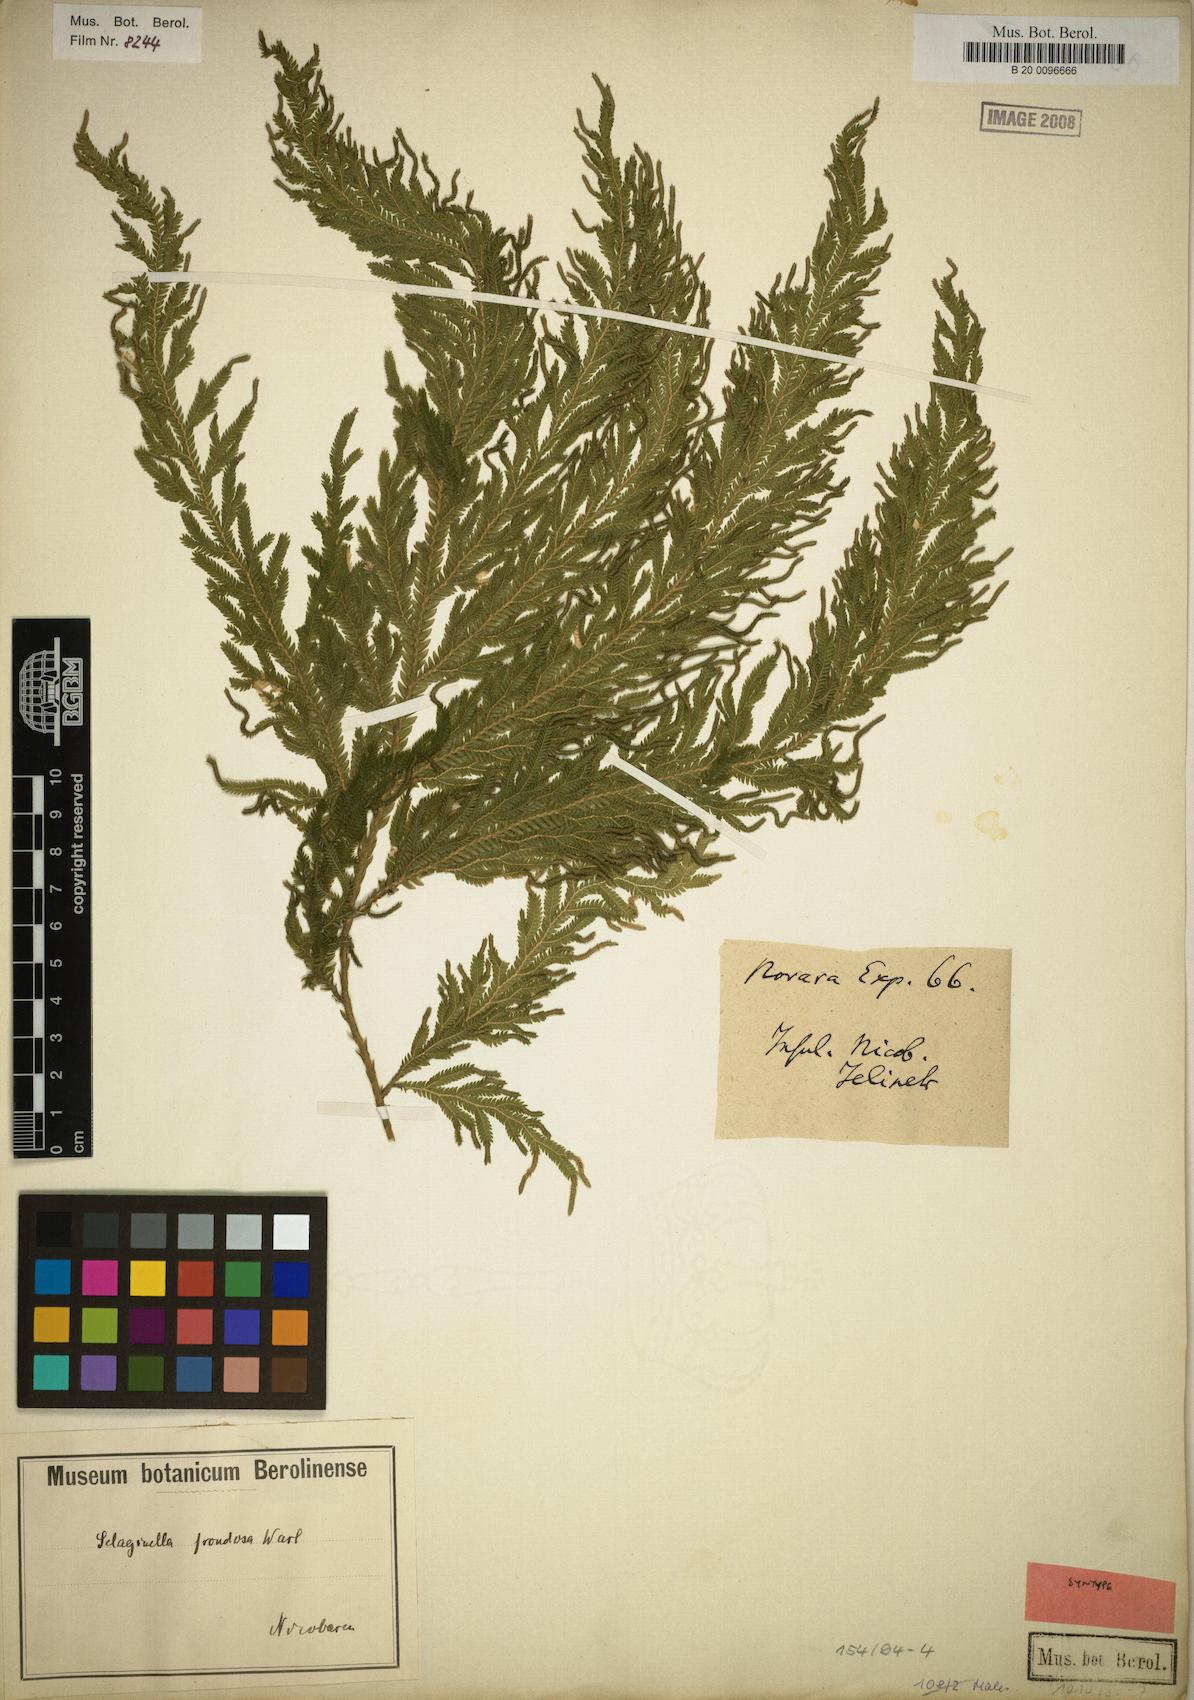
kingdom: Plantae
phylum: Tracheophyta
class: Lycopodiopsida
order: Selaginellales
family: Selaginellaceae
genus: Selaginella
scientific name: Selaginella frondosa
